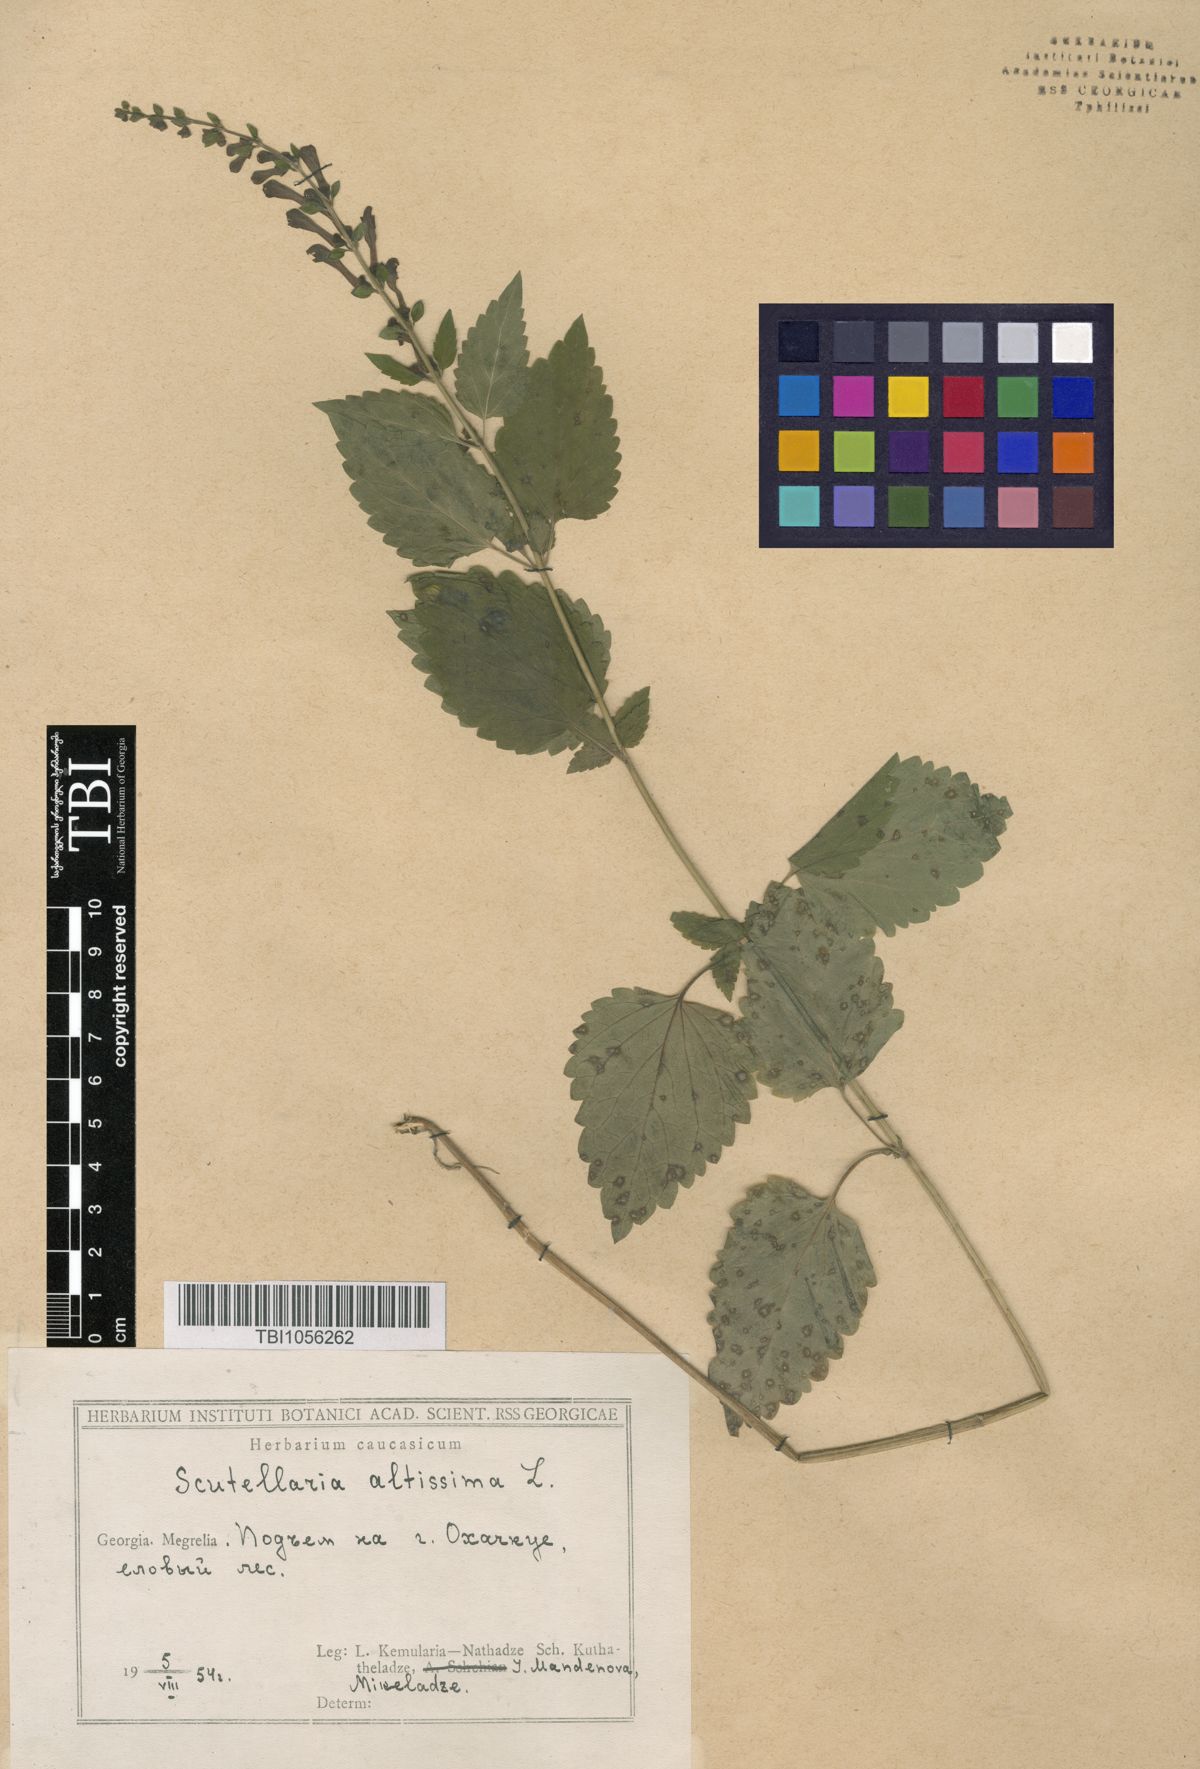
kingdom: Plantae
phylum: Tracheophyta
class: Magnoliopsida
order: Lamiales
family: Lamiaceae
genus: Scutellaria
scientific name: Scutellaria altissima
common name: Somerset skullcap
